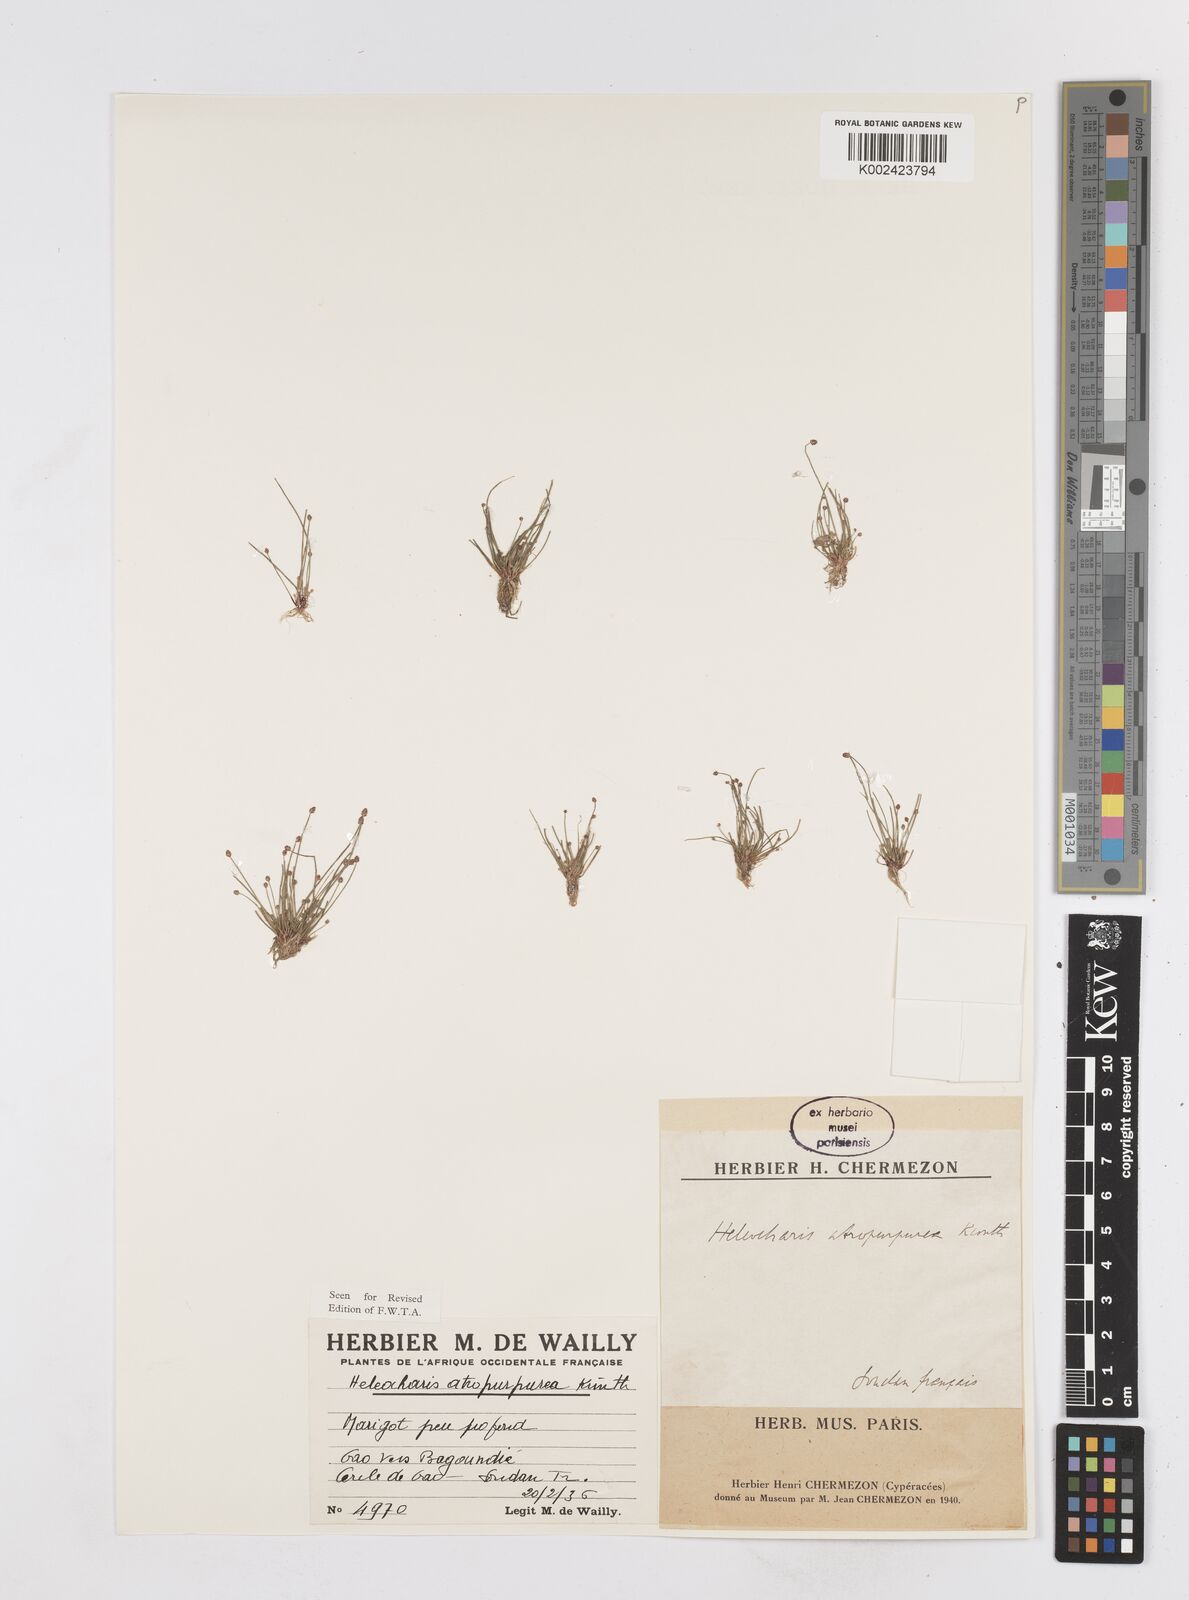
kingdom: Plantae
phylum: Tracheophyta
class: Liliopsida
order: Poales
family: Cyperaceae
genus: Eleocharis
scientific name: Eleocharis atropurpurea
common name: Purple spikerush
